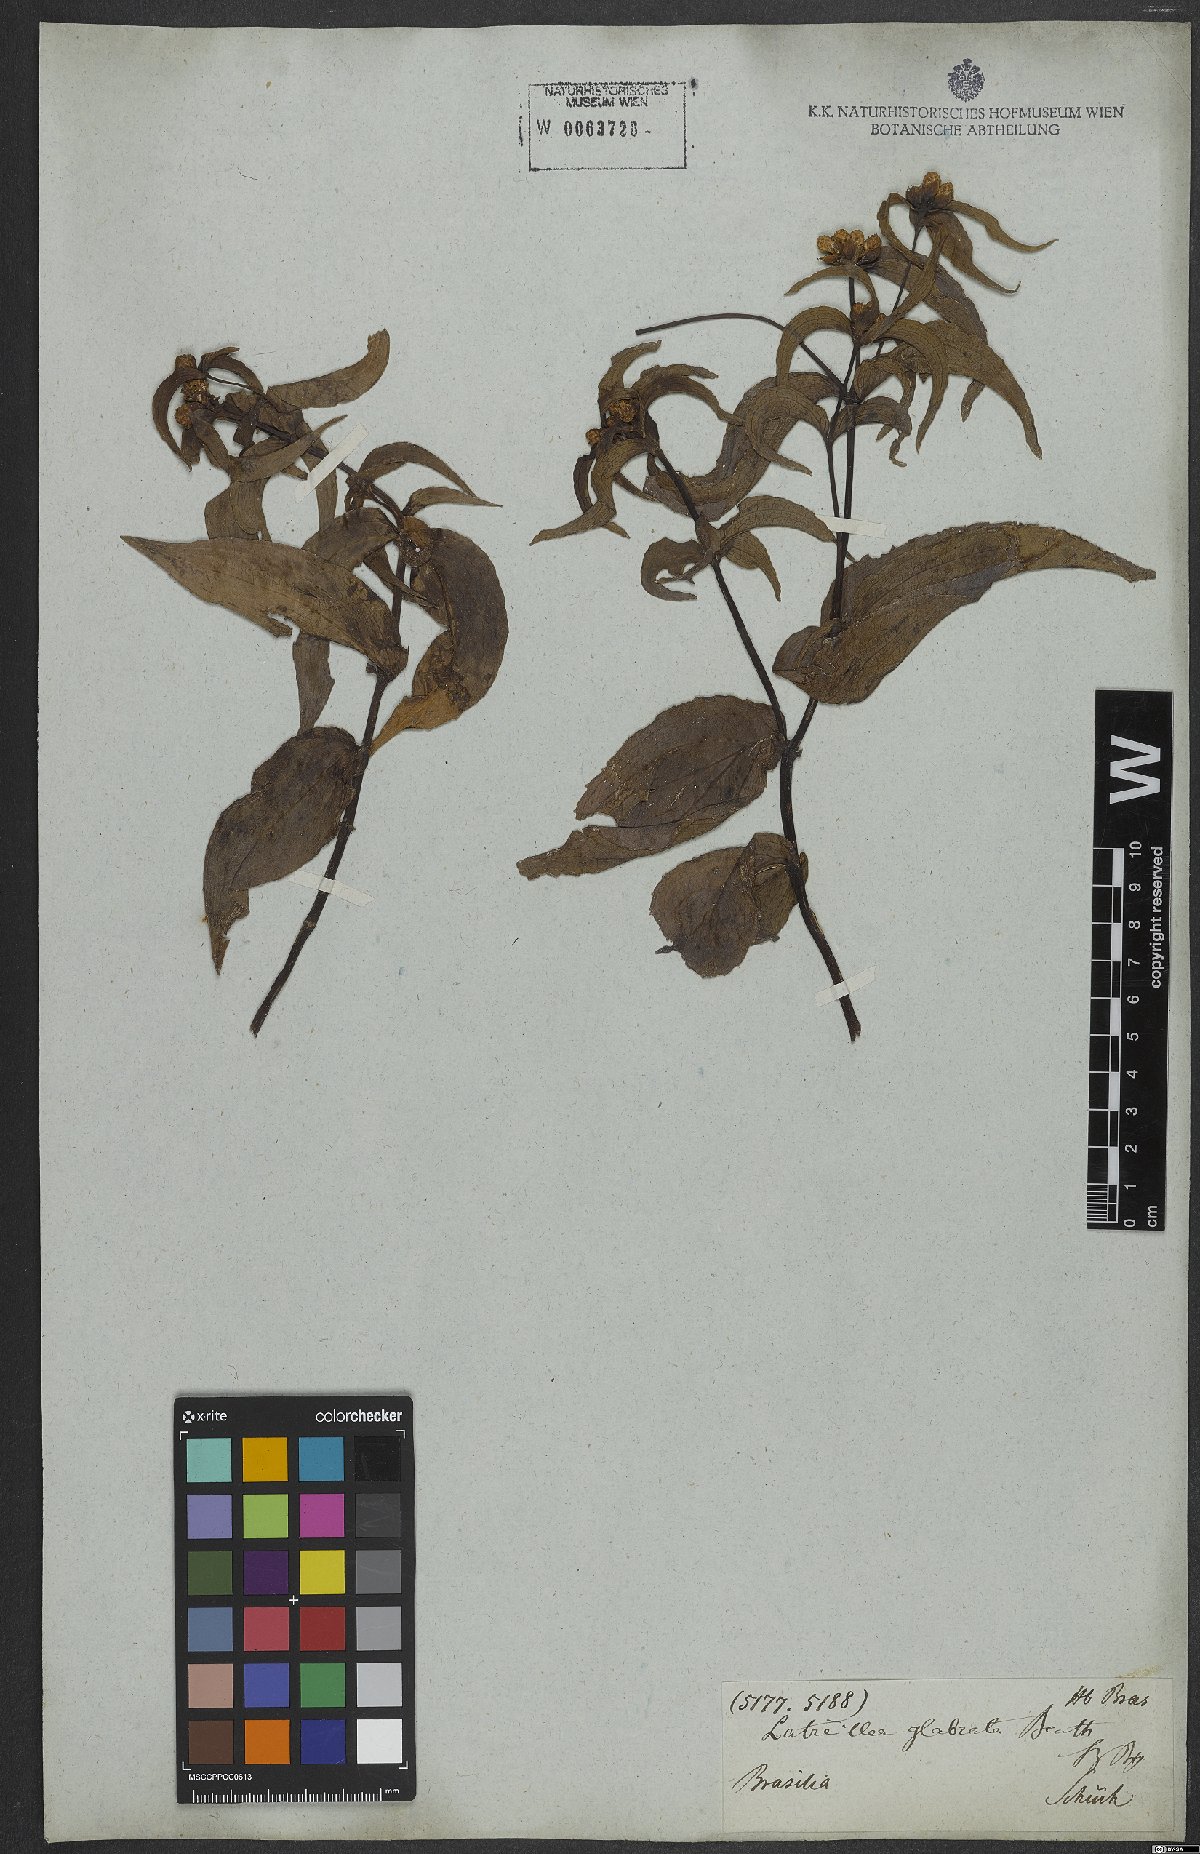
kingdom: Plantae
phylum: Tracheophyta
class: Magnoliopsida
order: Asterales
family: Asteraceae
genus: Ichthyothere
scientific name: Ichthyothere cunabi
